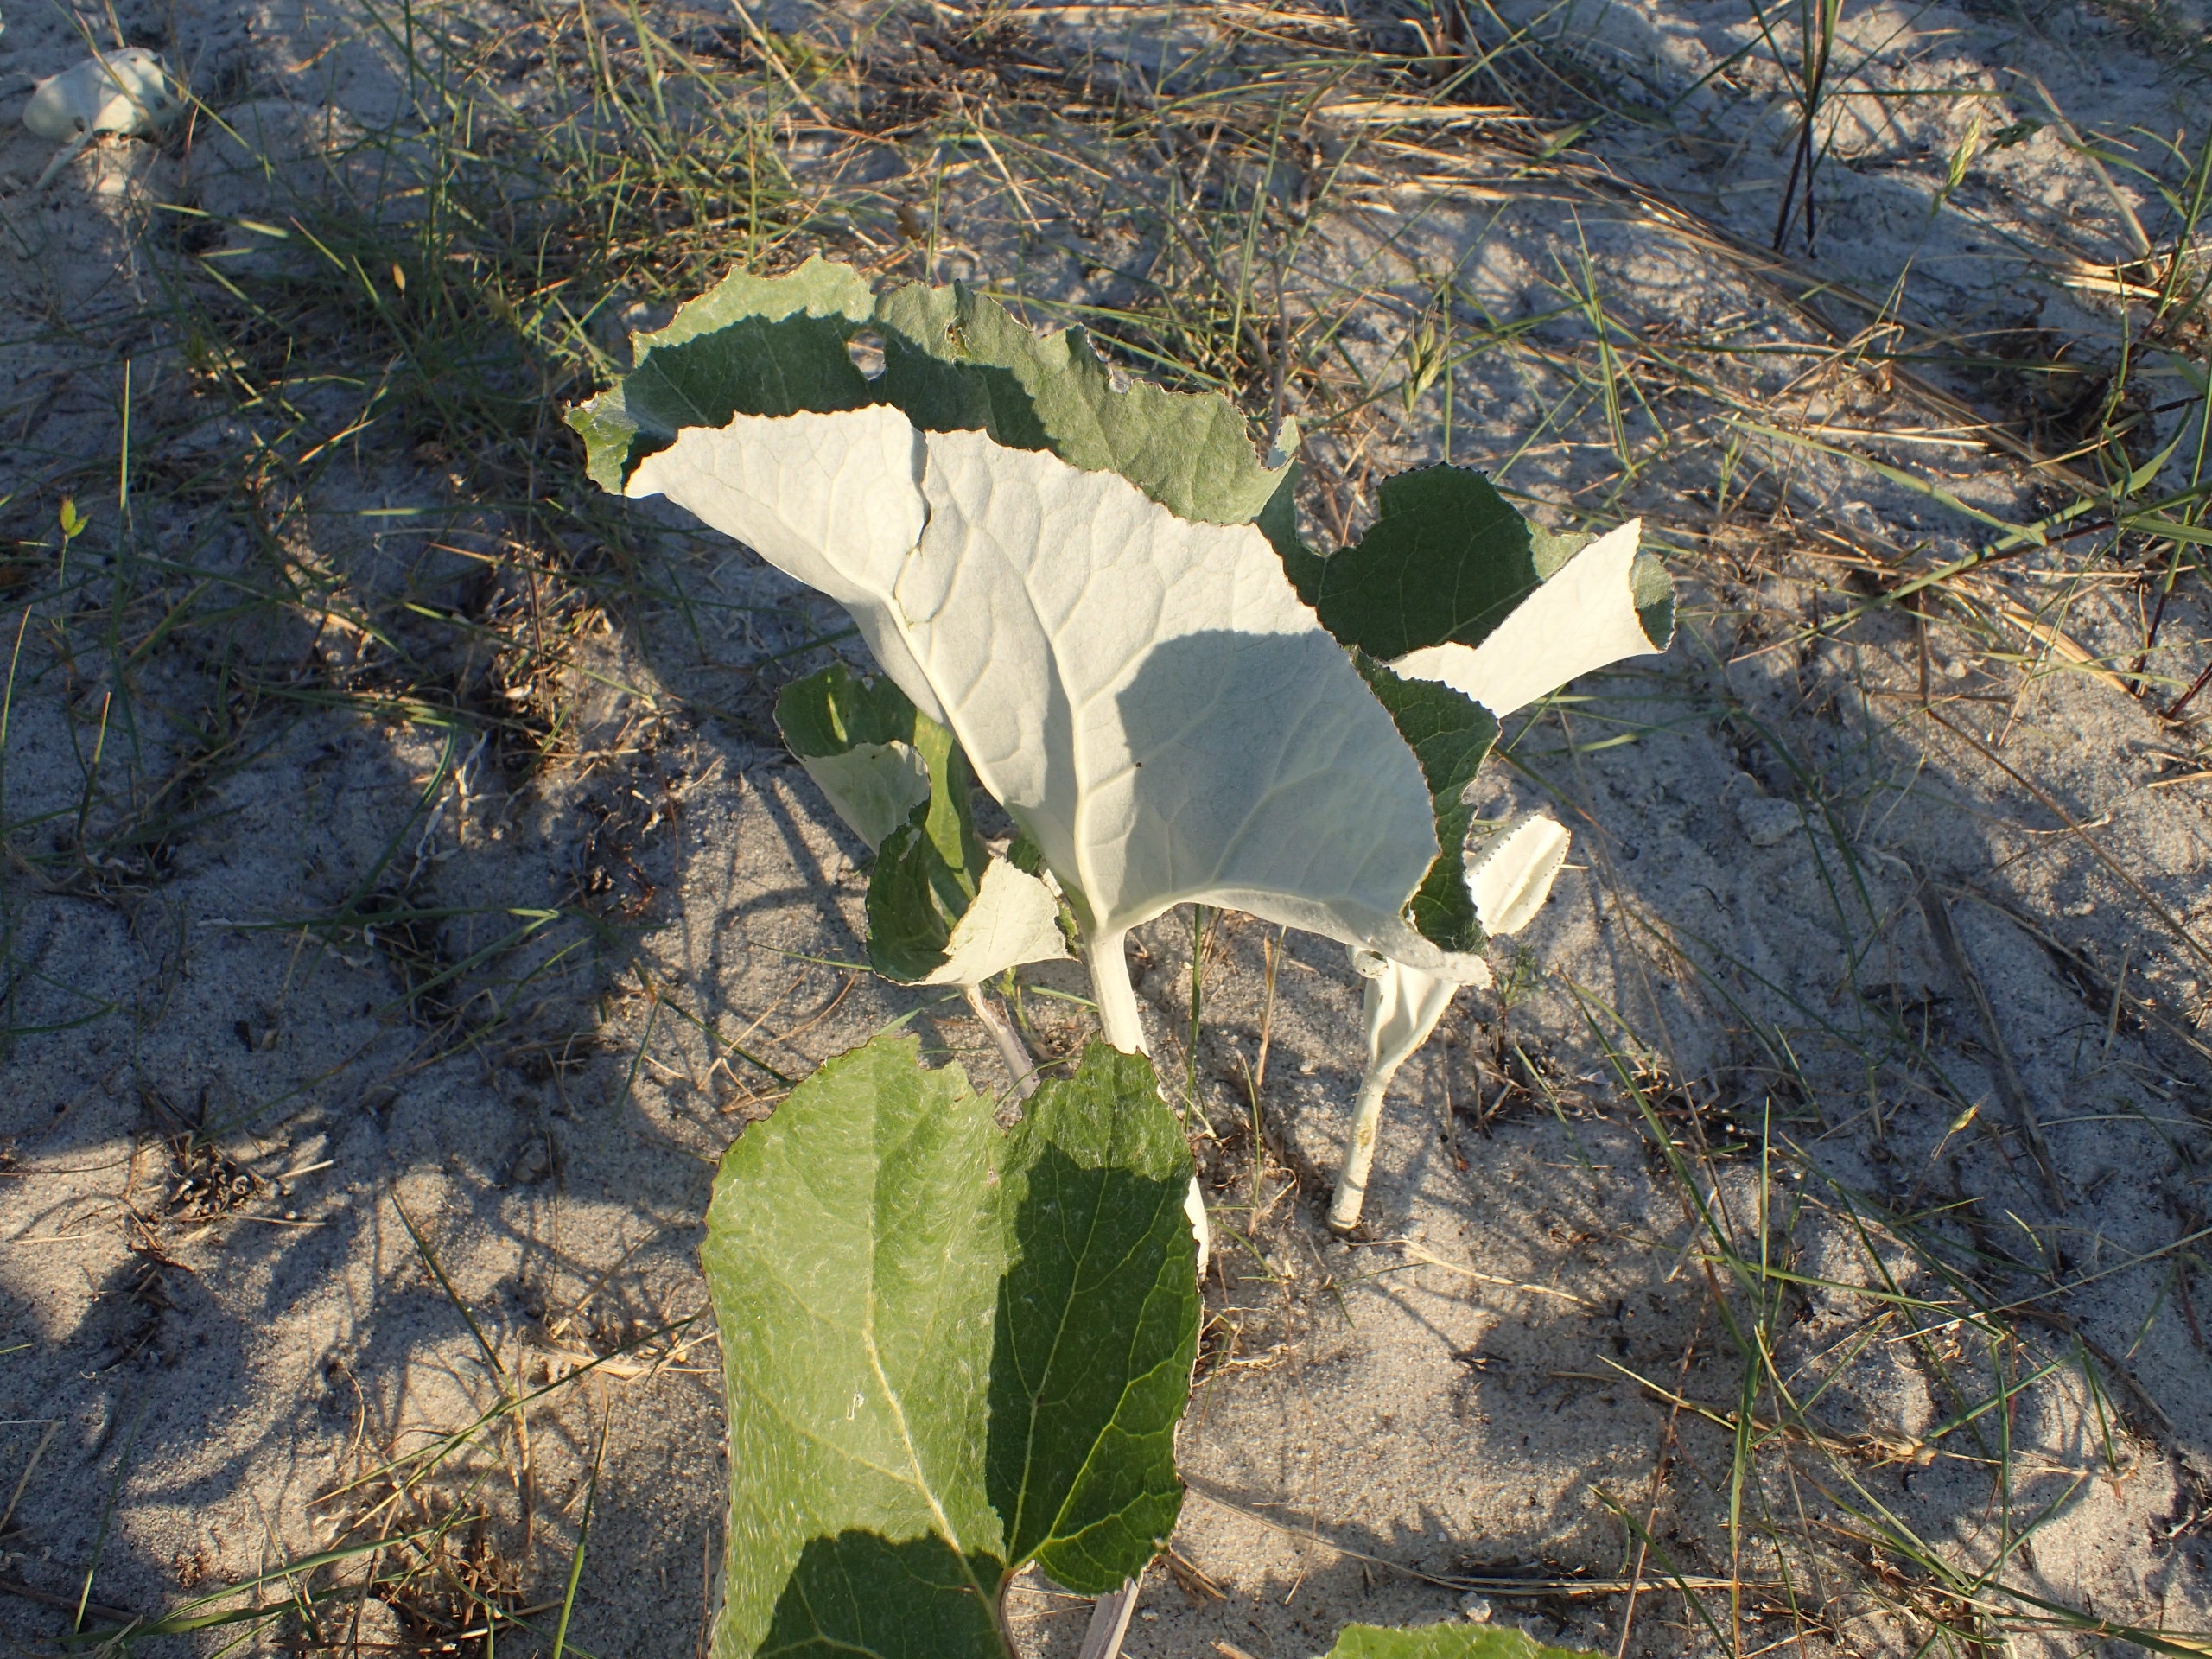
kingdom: Plantae
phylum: Tracheophyta
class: Magnoliopsida
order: Asterales
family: Asteraceae
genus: Petasites
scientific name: Petasites spurius
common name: Filtet hestehov
